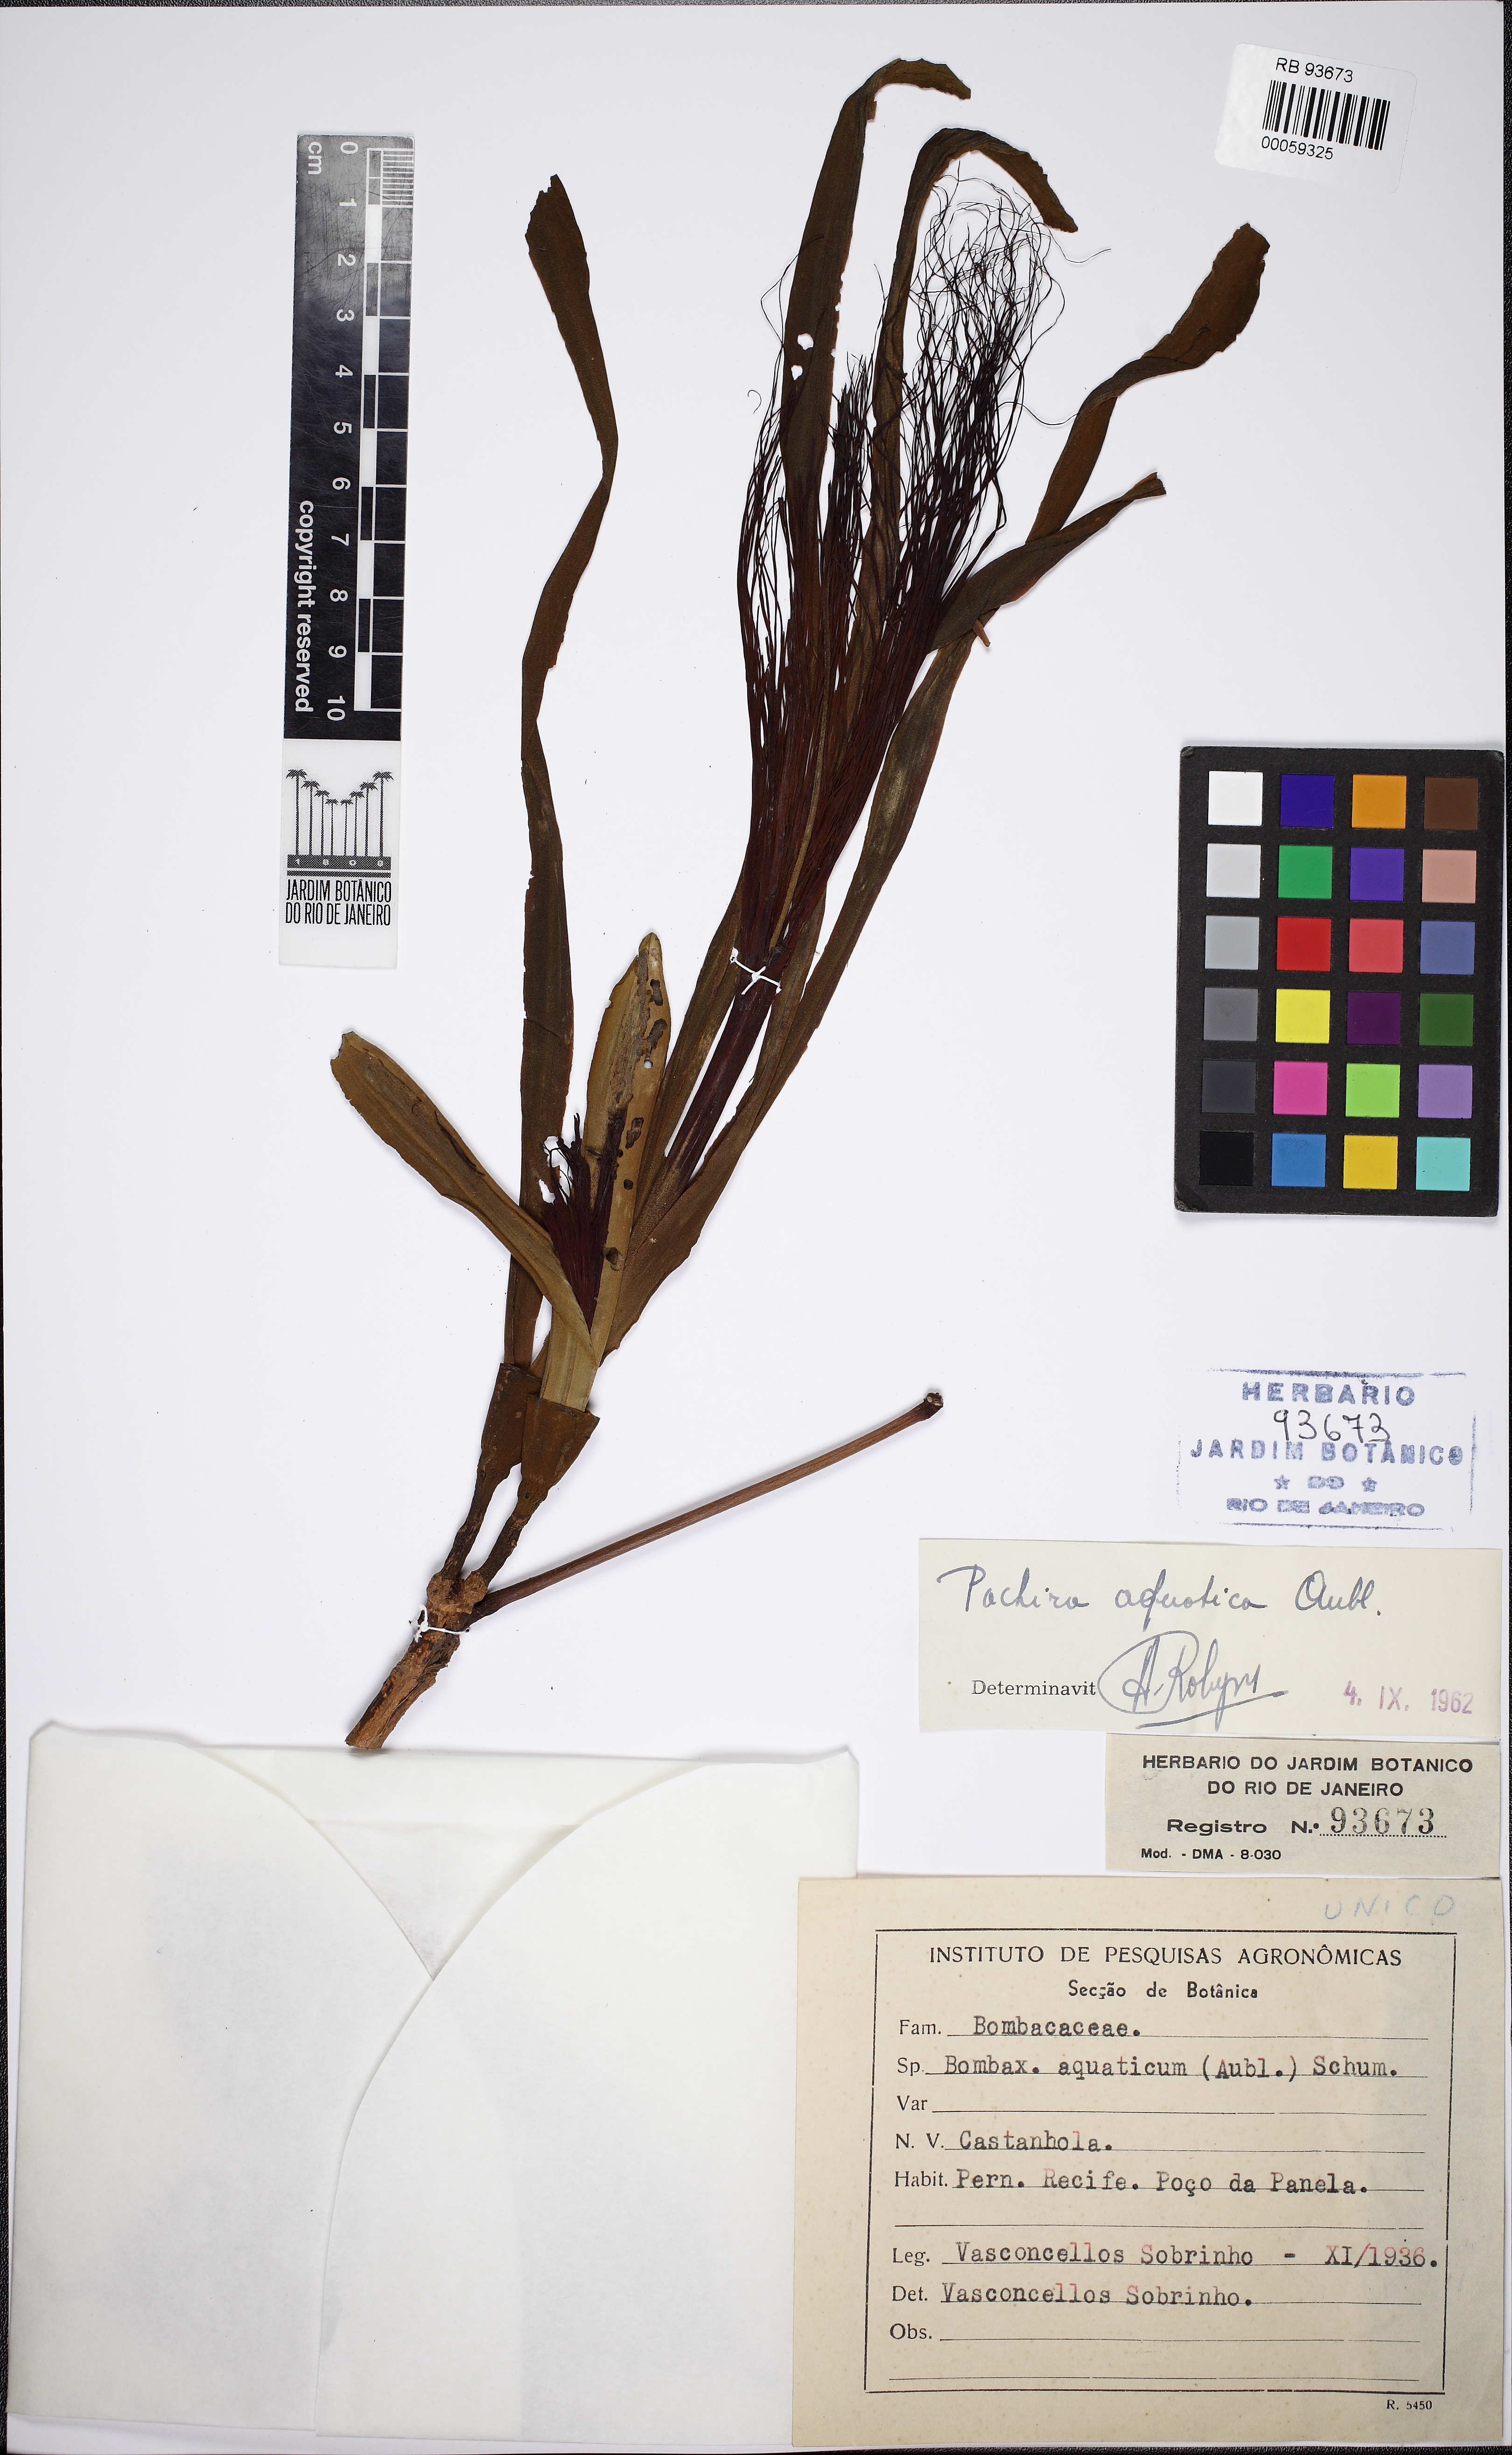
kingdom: Plantae
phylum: Tracheophyta
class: Magnoliopsida
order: Malvales
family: Malvaceae
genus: Pachira
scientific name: Pachira aquatica
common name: Provision-tree
